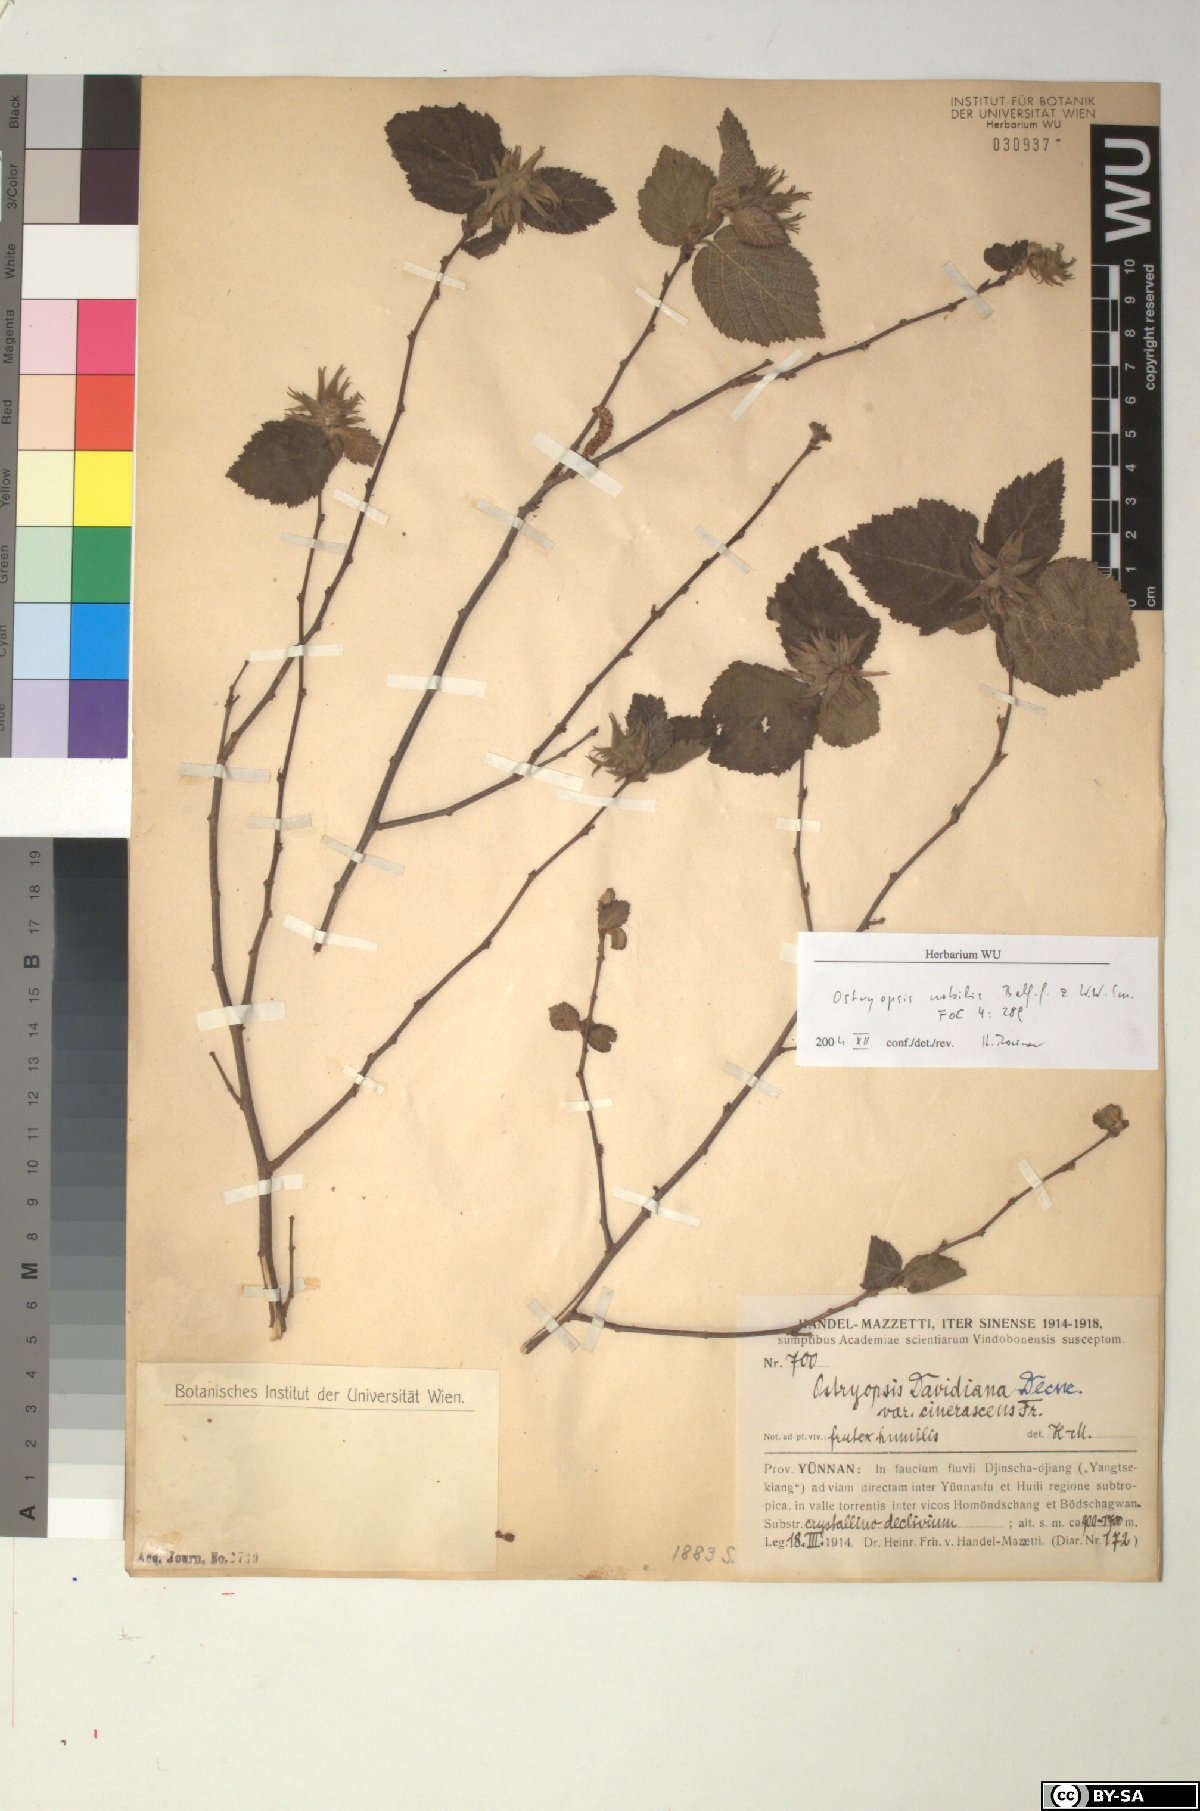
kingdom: Plantae
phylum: Tracheophyta
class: Magnoliopsida
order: Fagales
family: Betulaceae
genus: Ostryopsis
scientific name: Ostryopsis nobilis
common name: Yunnan tiger hazel
